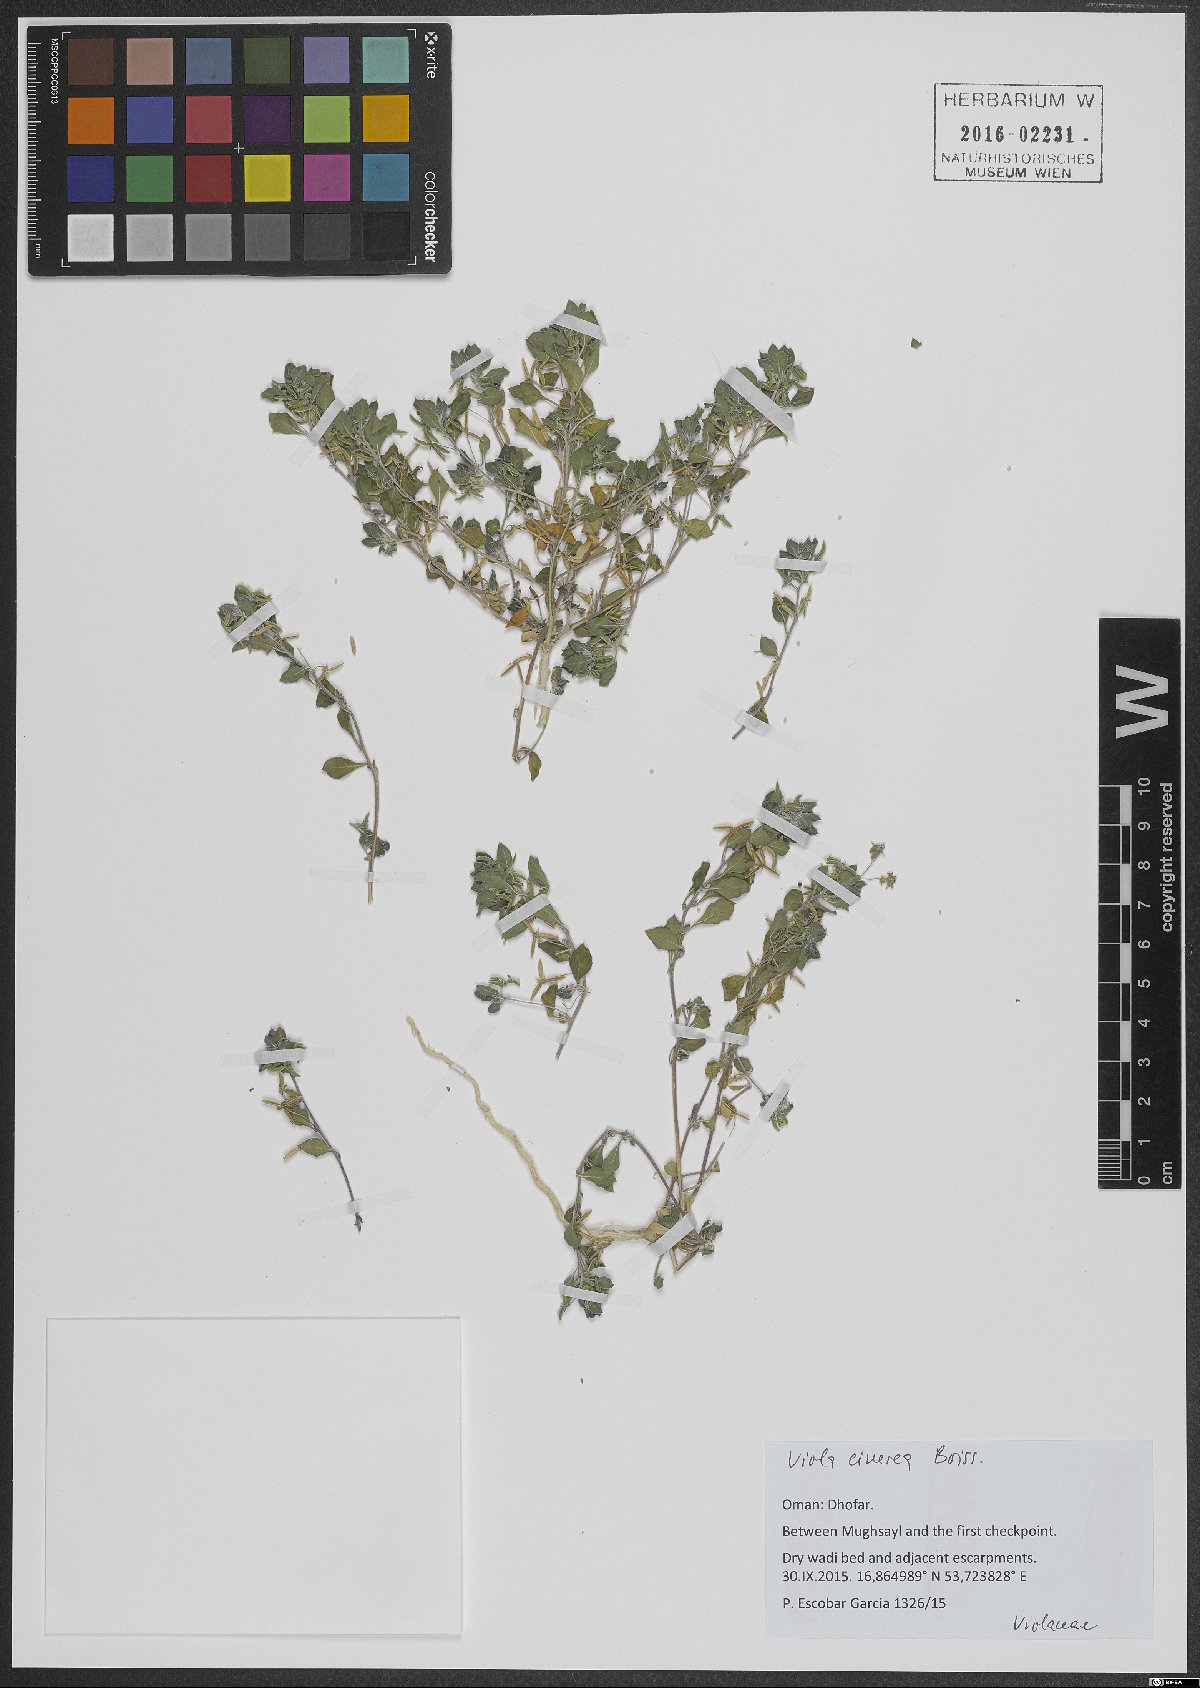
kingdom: Plantae
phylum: Tracheophyta
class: Magnoliopsida
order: Malpighiales
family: Violaceae
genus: Viola
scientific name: Viola cinerea
